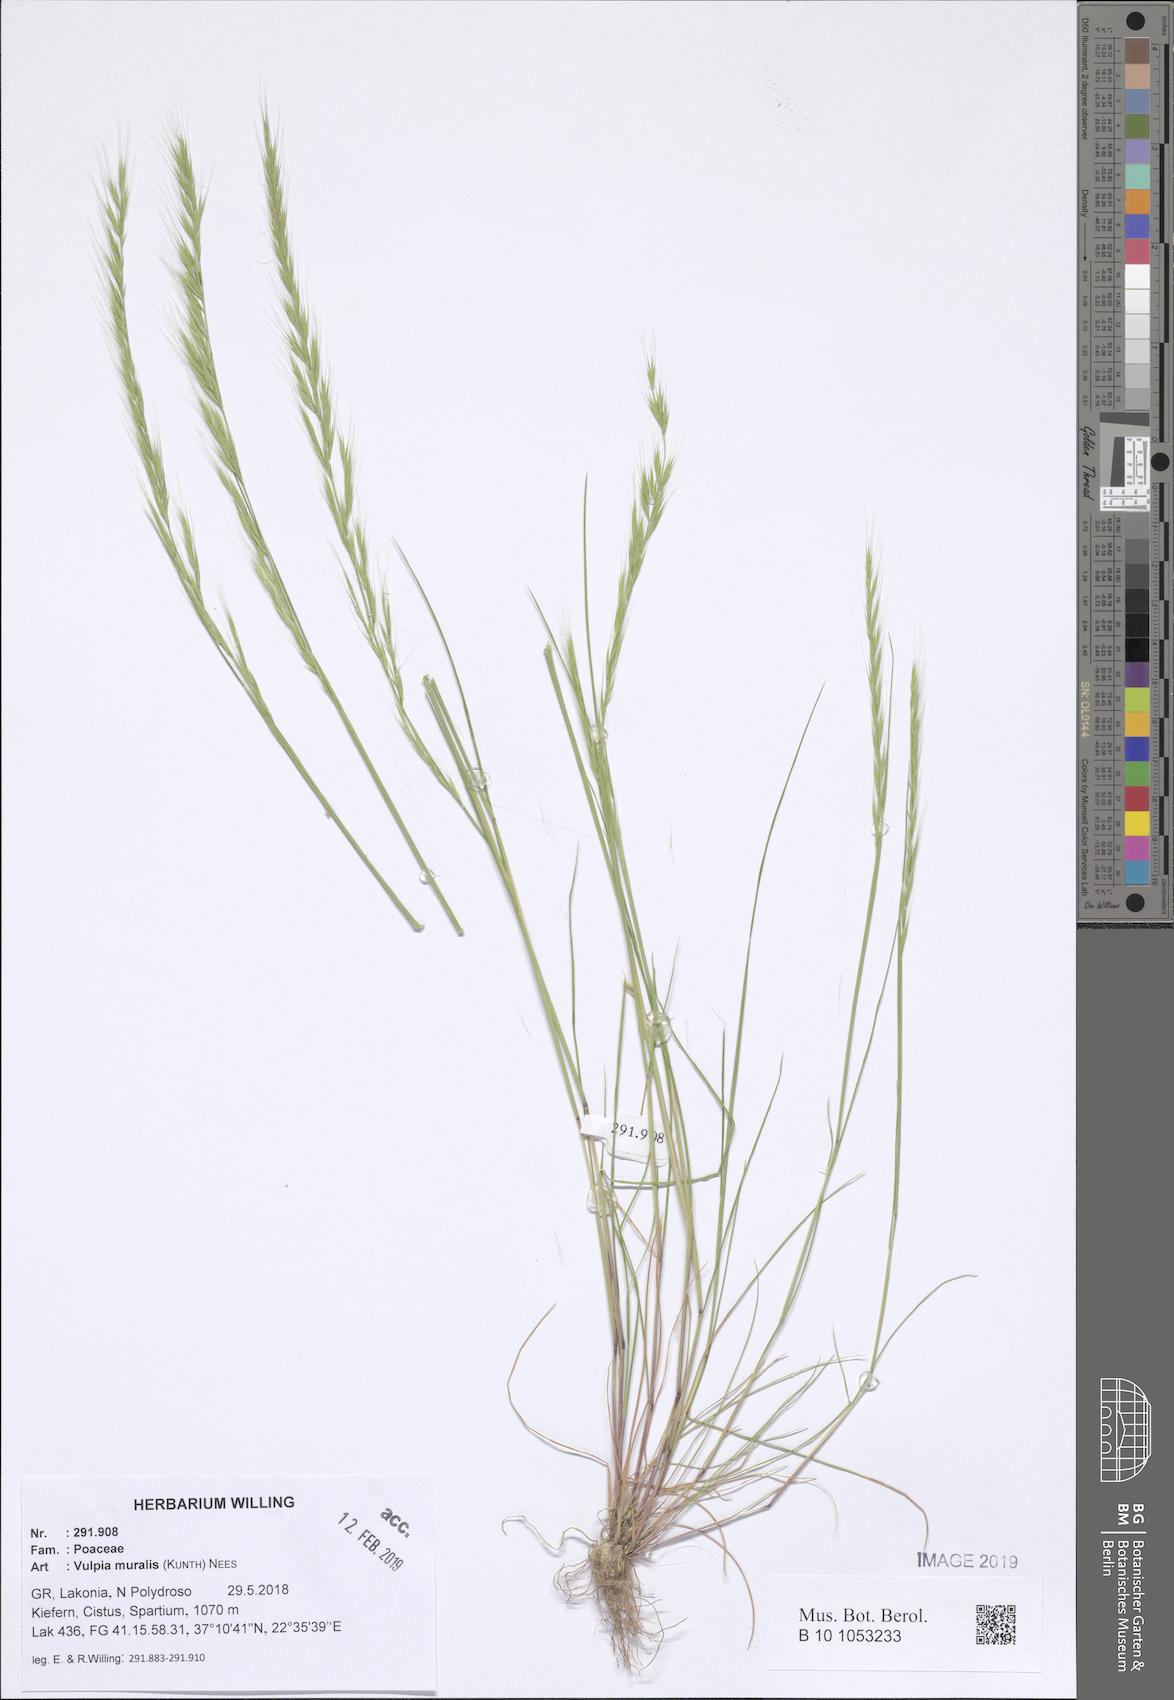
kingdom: Plantae
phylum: Tracheophyta
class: Liliopsida
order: Poales
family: Poaceae
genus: Festuca
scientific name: Festuca muralis
